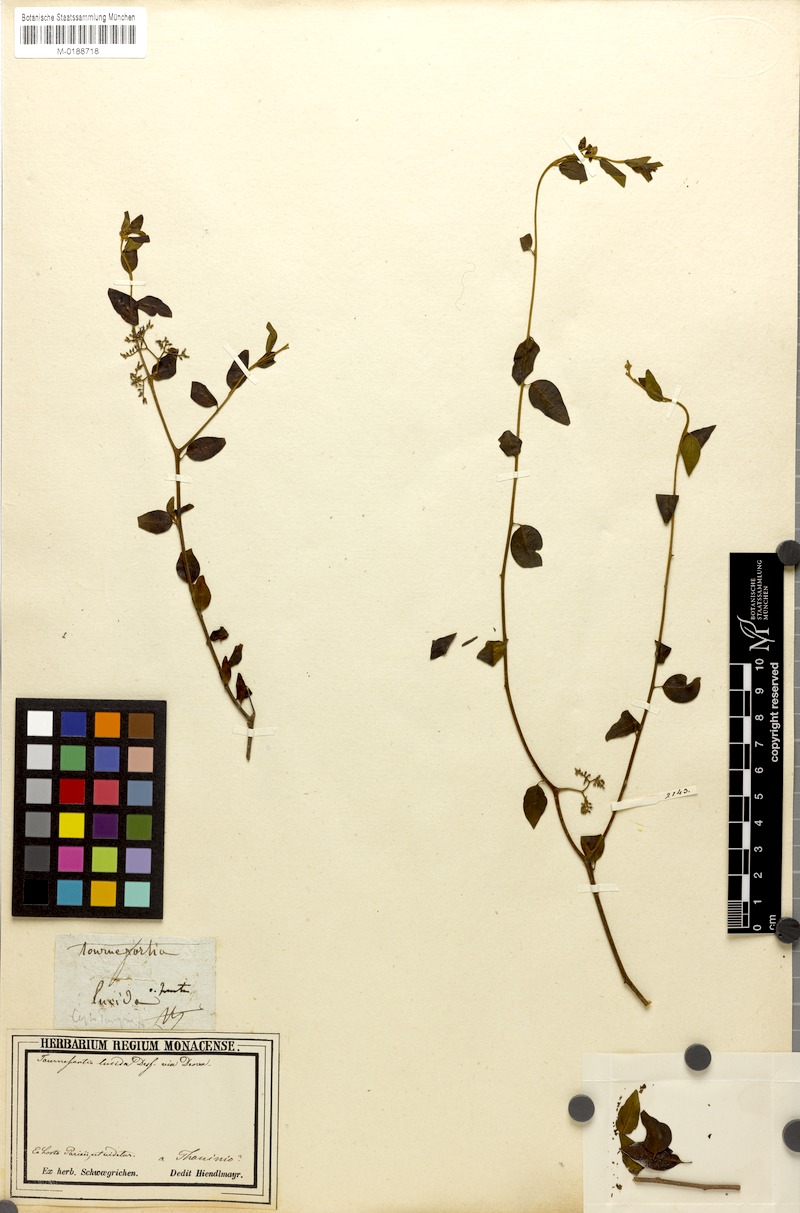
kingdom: Plantae
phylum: Tracheophyta
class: Magnoliopsida
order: Boraginales
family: Heliotropiaceae
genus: Tournefortia
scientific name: Tournefortia microphylla
